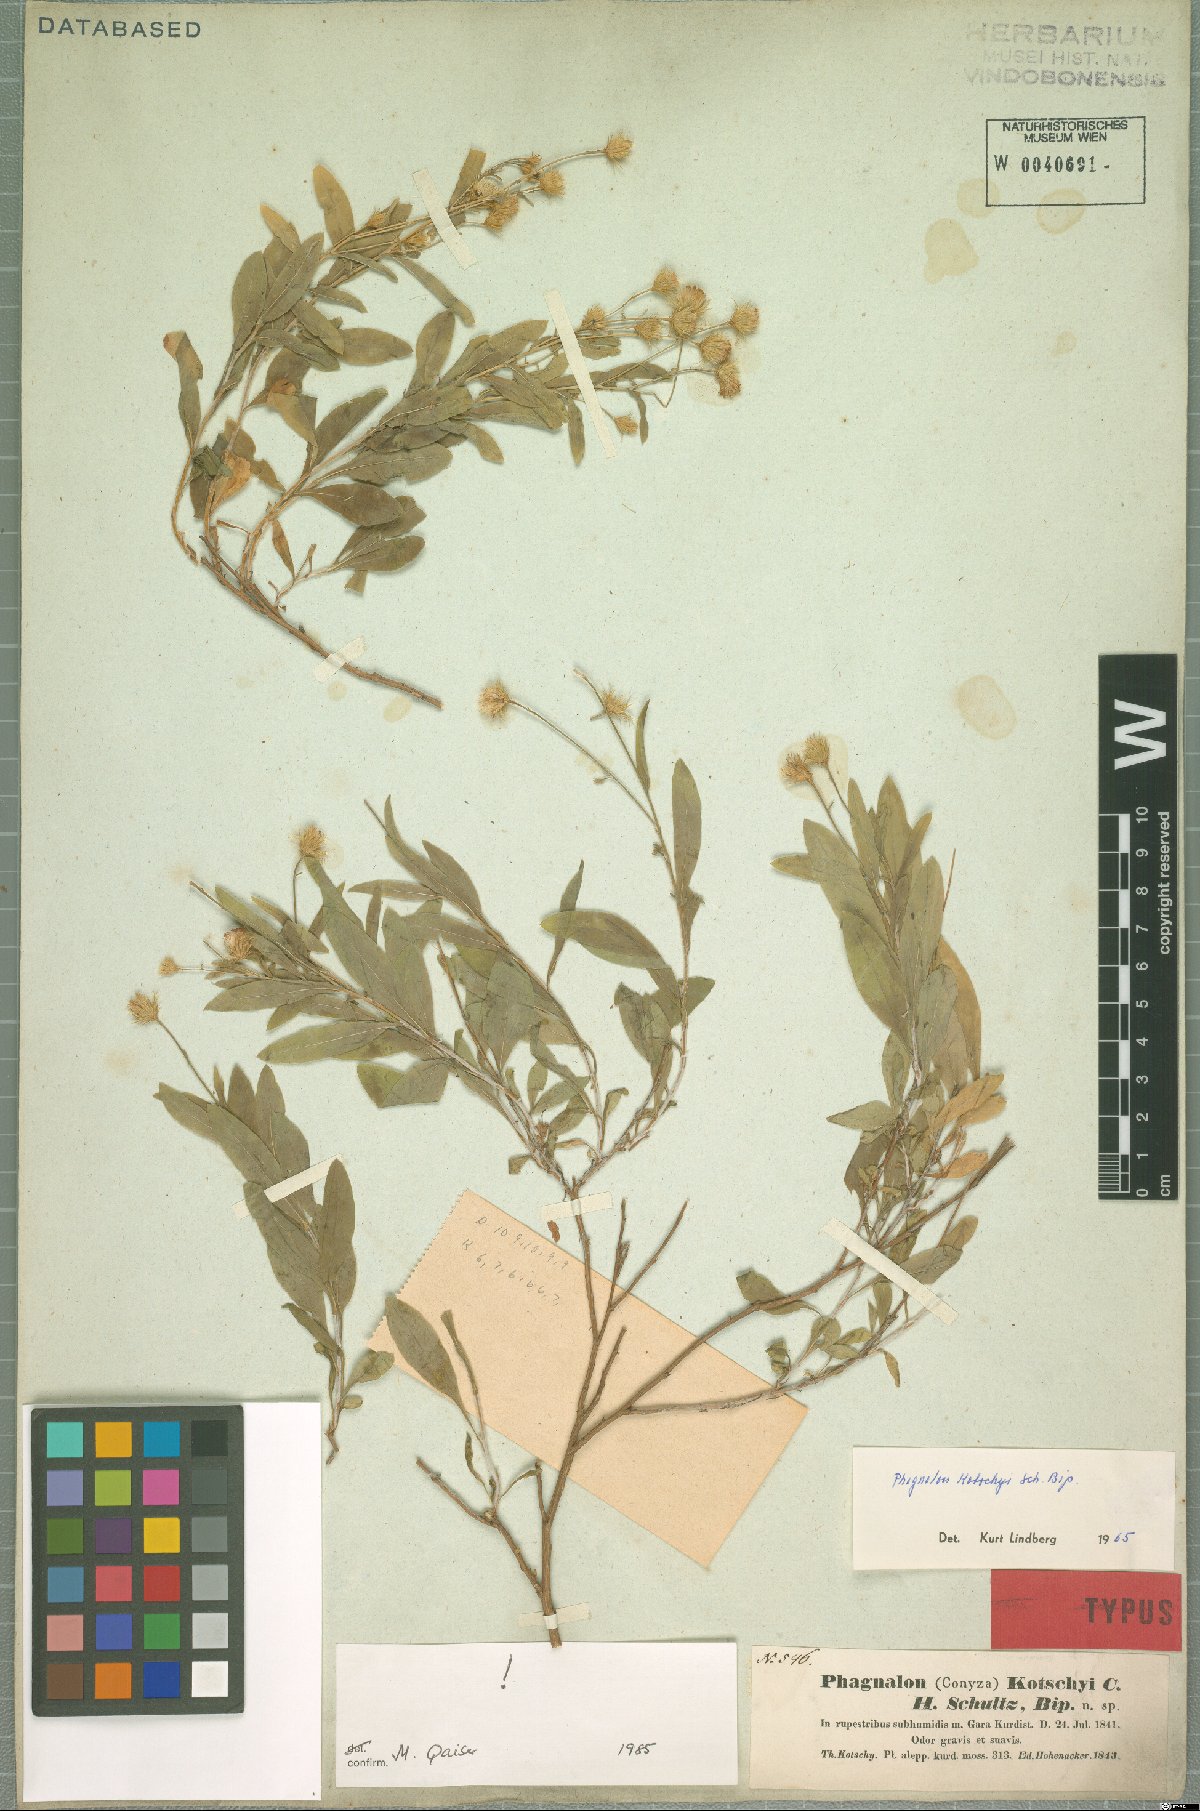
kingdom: Plantae
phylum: Tracheophyta
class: Magnoliopsida
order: Asterales
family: Asteraceae
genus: Phagnalon
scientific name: Phagnalon kotschyi
